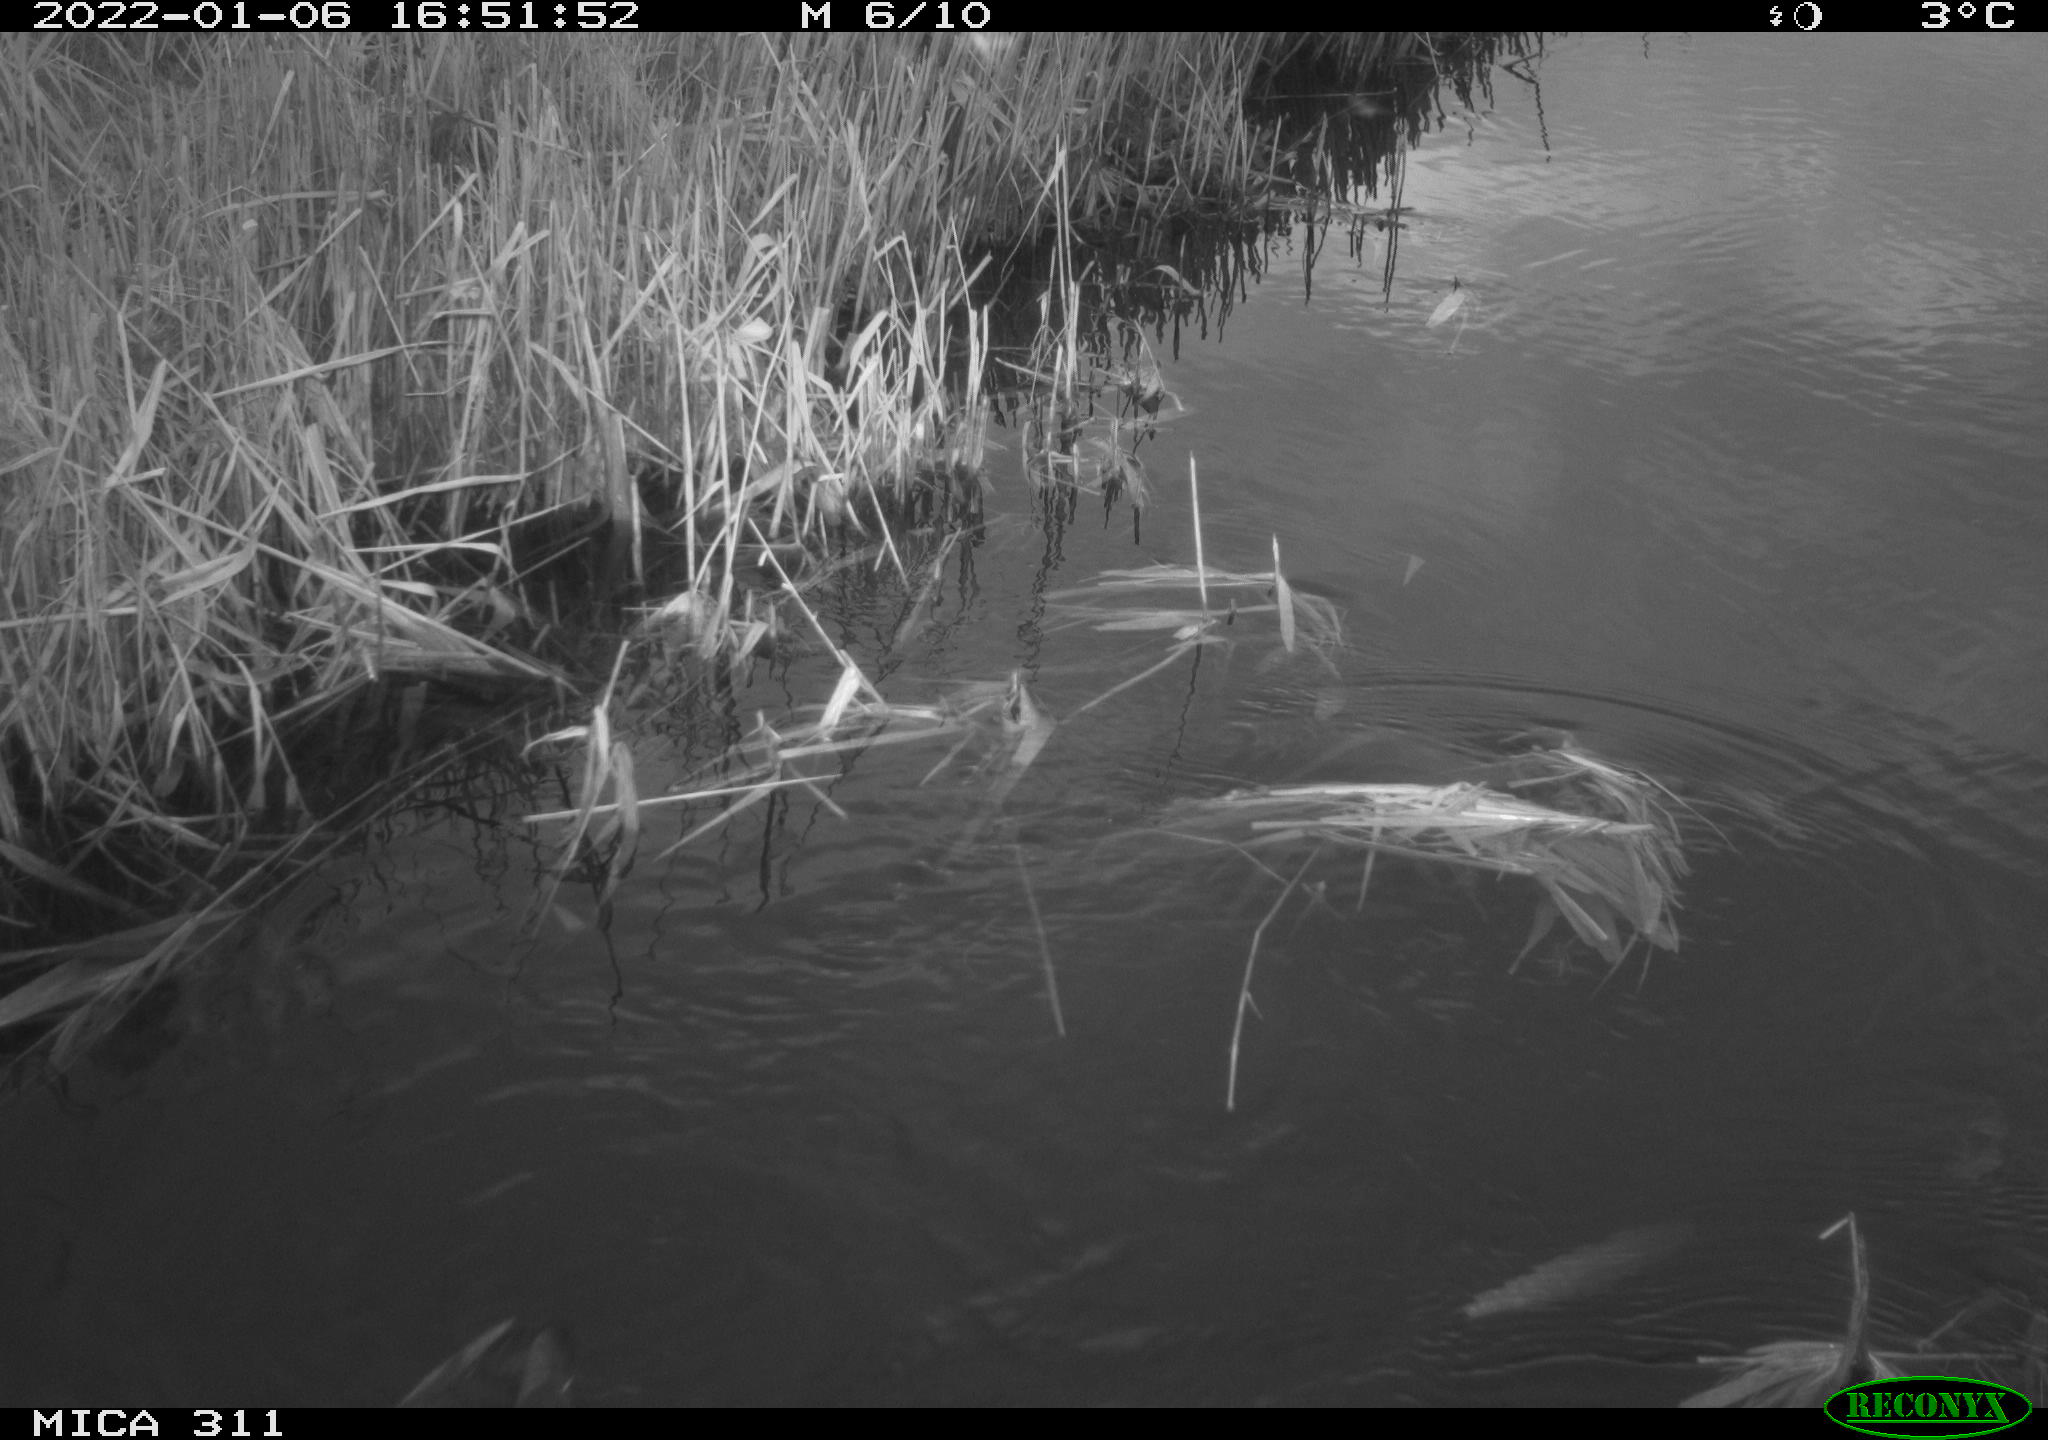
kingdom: Animalia
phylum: Chordata
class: Aves
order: Gruiformes
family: Rallidae
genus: Gallinula
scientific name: Gallinula chloropus
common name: Common moorhen
